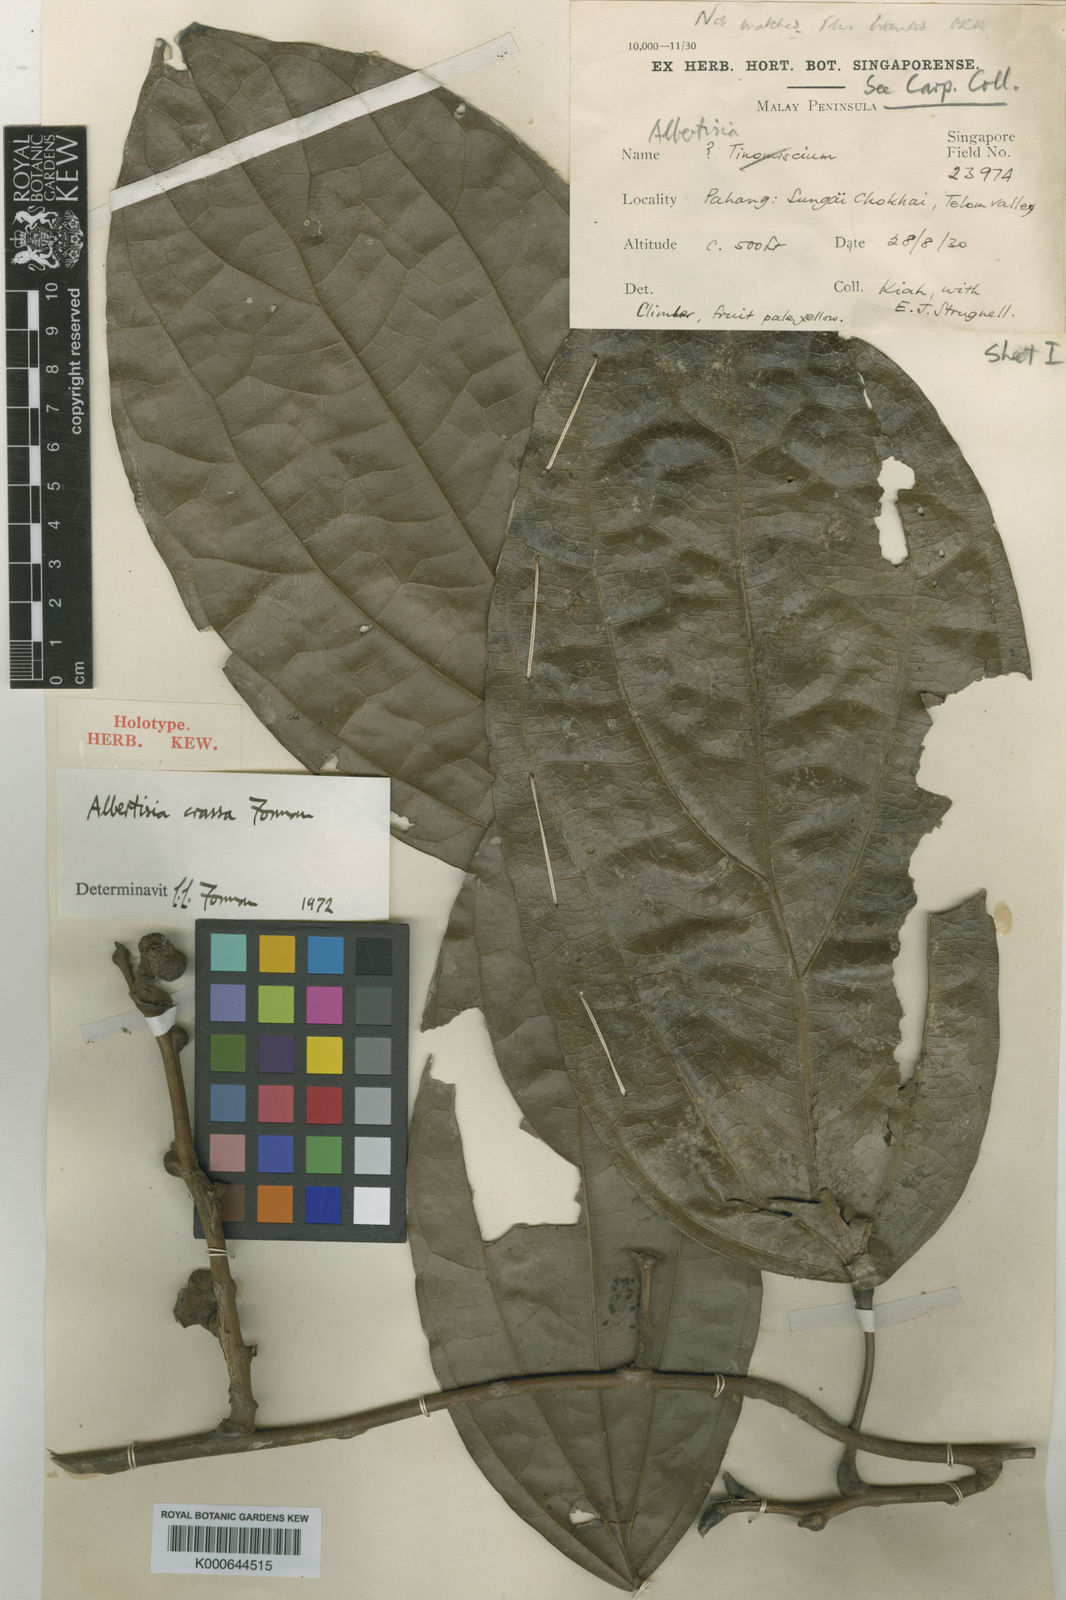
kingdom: Plantae
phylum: Tracheophyta
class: Magnoliopsida
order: Ranunculales
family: Menispermaceae
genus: Albertisia
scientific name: Albertisia crassa
